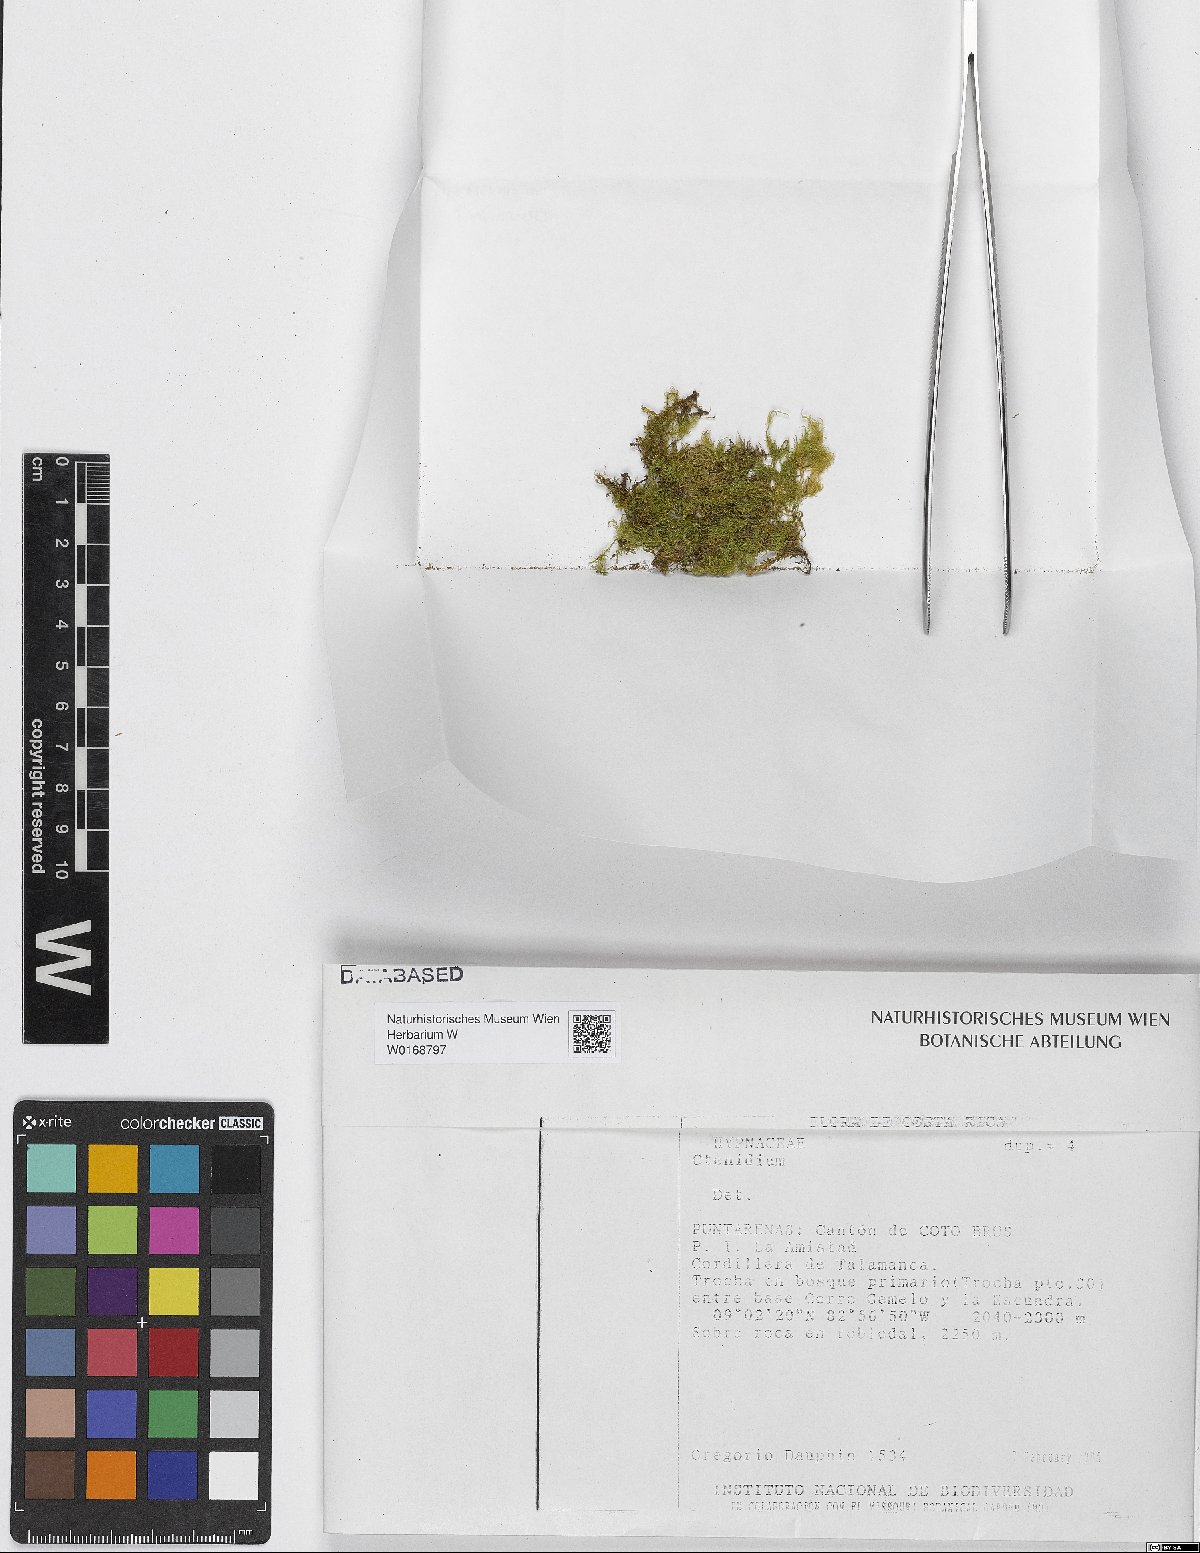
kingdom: Plantae
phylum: Bryophyta
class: Bryopsida
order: Hypnales
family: Myuriaceae
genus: Ctenidium
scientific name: Ctenidium
